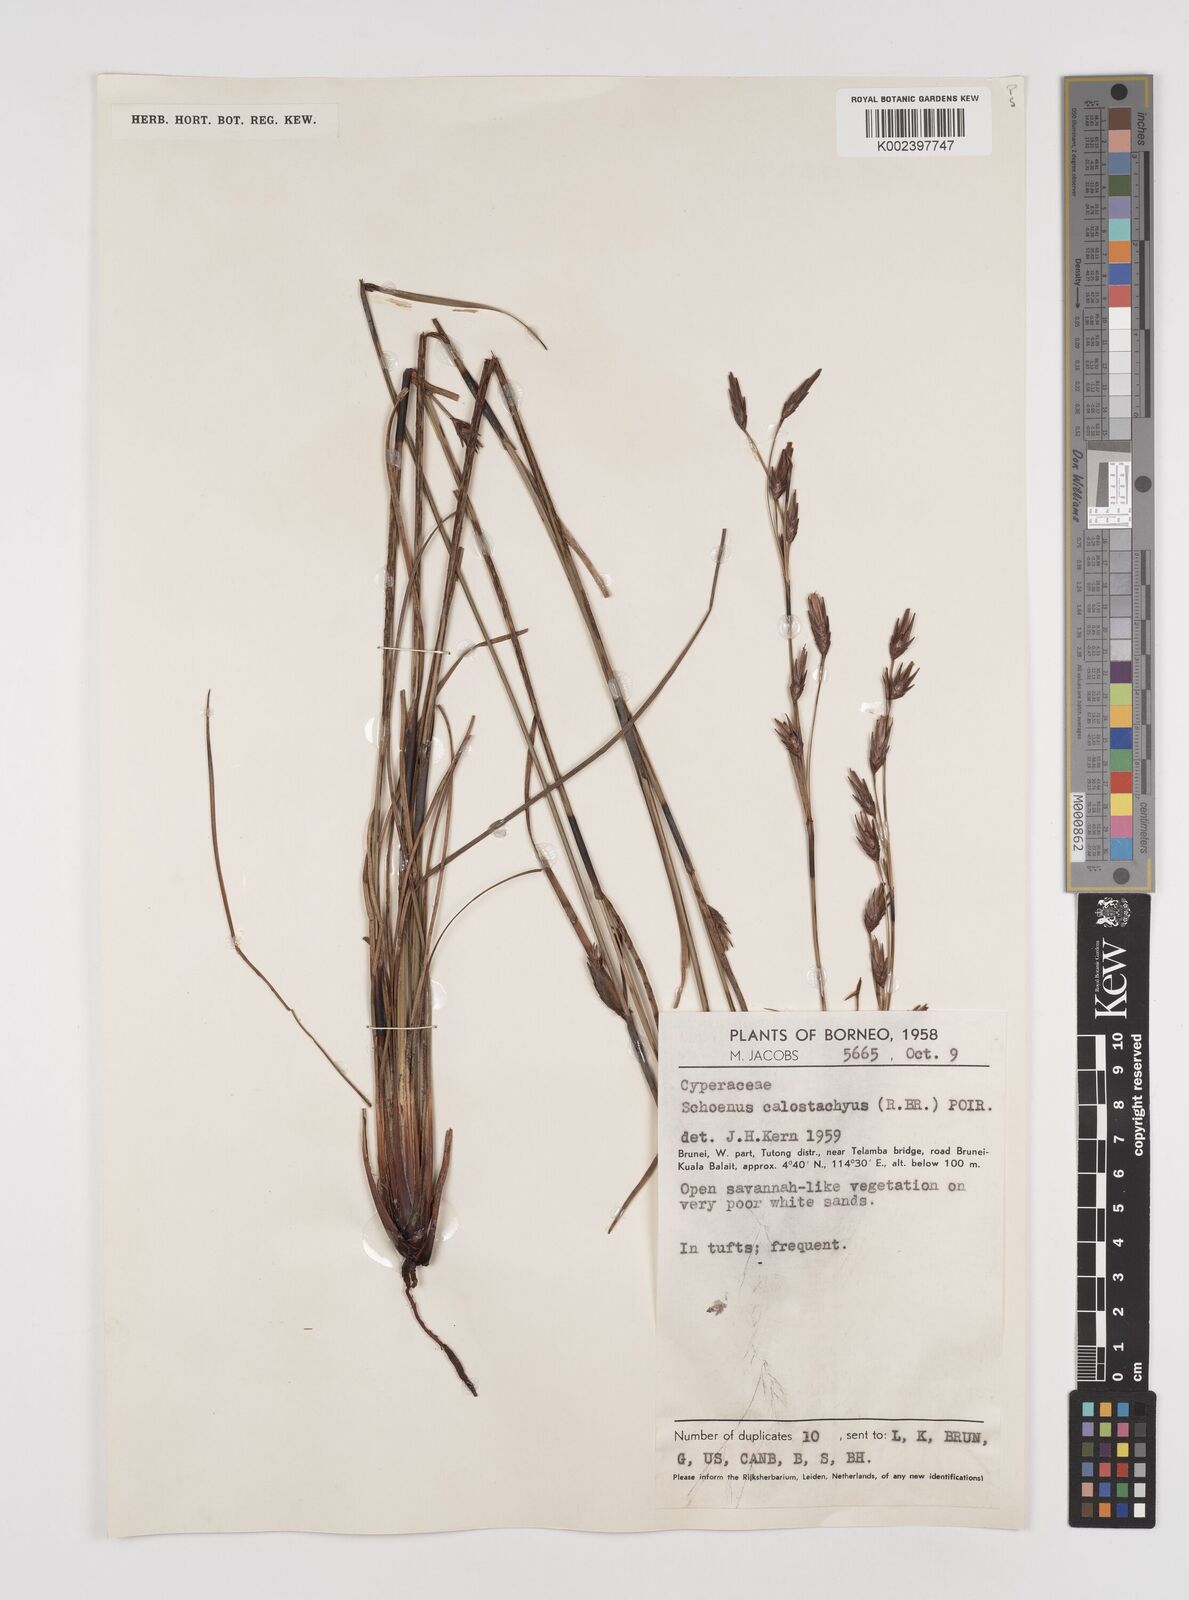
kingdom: Plantae
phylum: Tracheophyta
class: Liliopsida
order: Poales
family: Cyperaceae
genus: Schoenus
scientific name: Schoenus calostachyus
